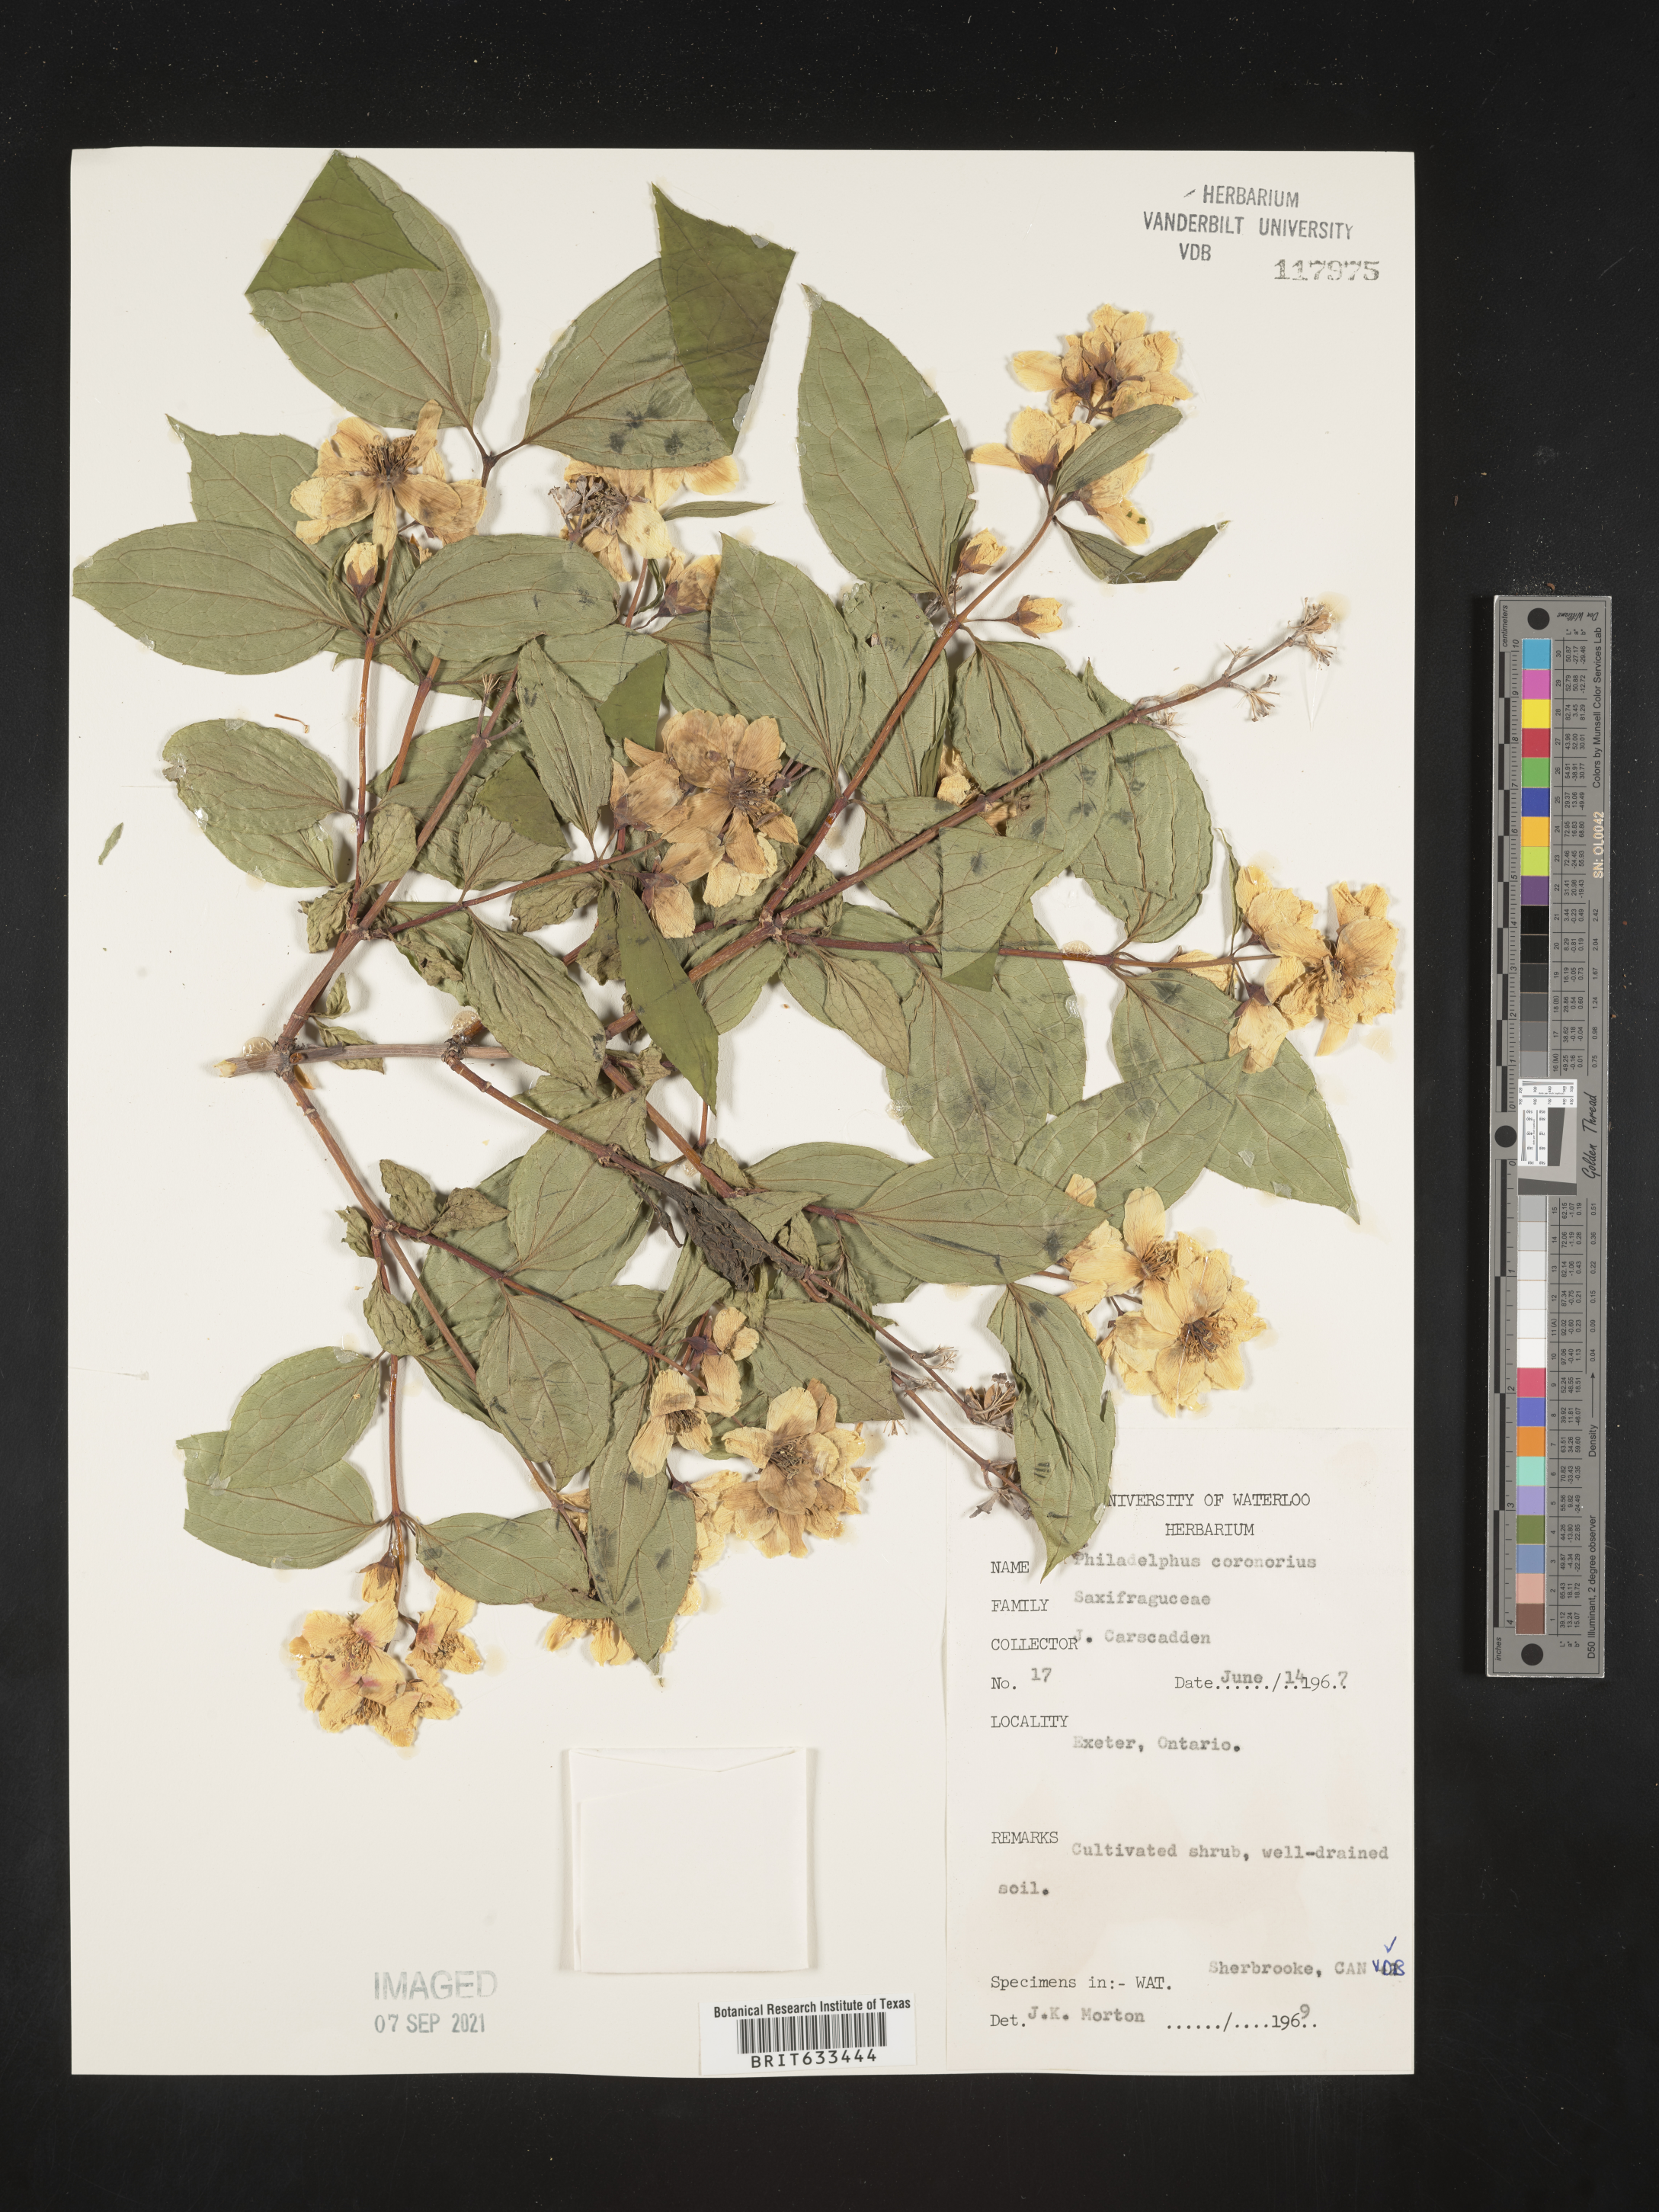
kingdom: Plantae
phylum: Tracheophyta
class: Magnoliopsida
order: Cornales
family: Hydrangeaceae
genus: Philadelphus
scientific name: Philadelphus
